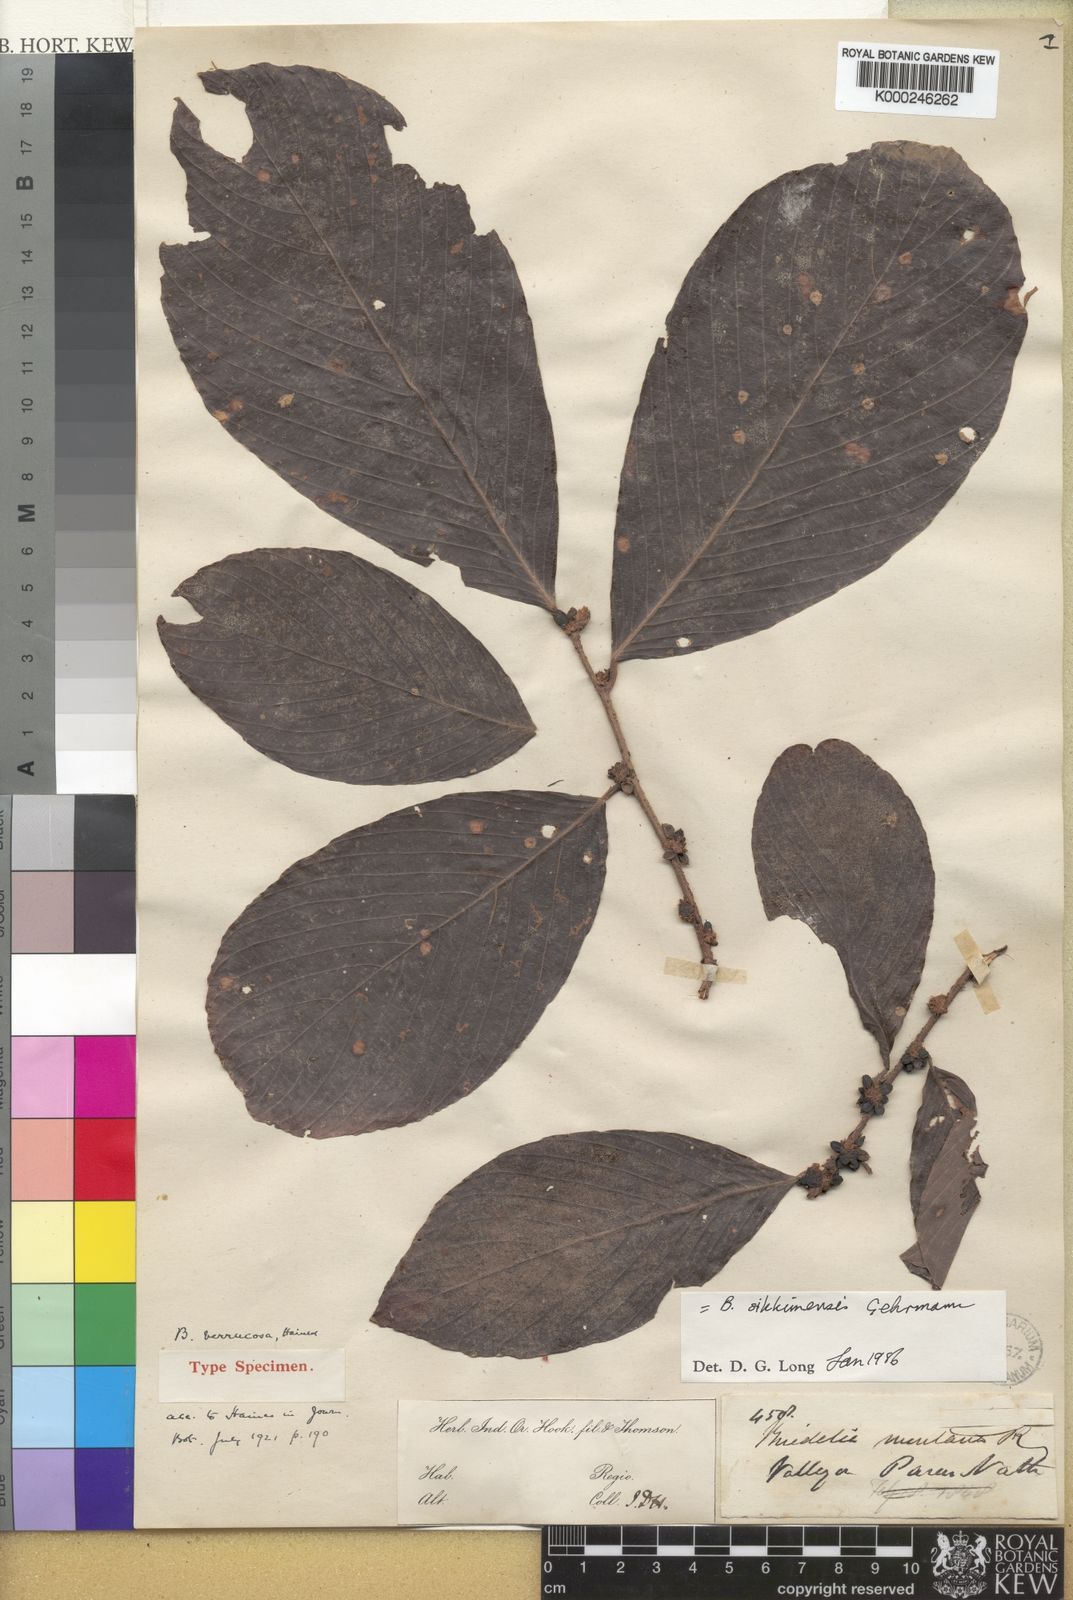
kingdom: Plantae
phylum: Tracheophyta
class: Magnoliopsida
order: Malpighiales
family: Phyllanthaceae
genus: Bridelia
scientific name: Bridelia verrucosa
